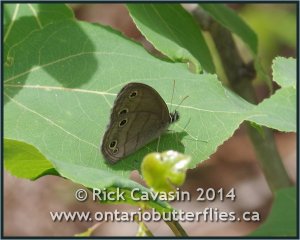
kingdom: Animalia
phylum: Arthropoda
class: Insecta
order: Lepidoptera
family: Nymphalidae
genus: Euptychia
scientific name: Euptychia cymela
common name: Little Wood Satyr
